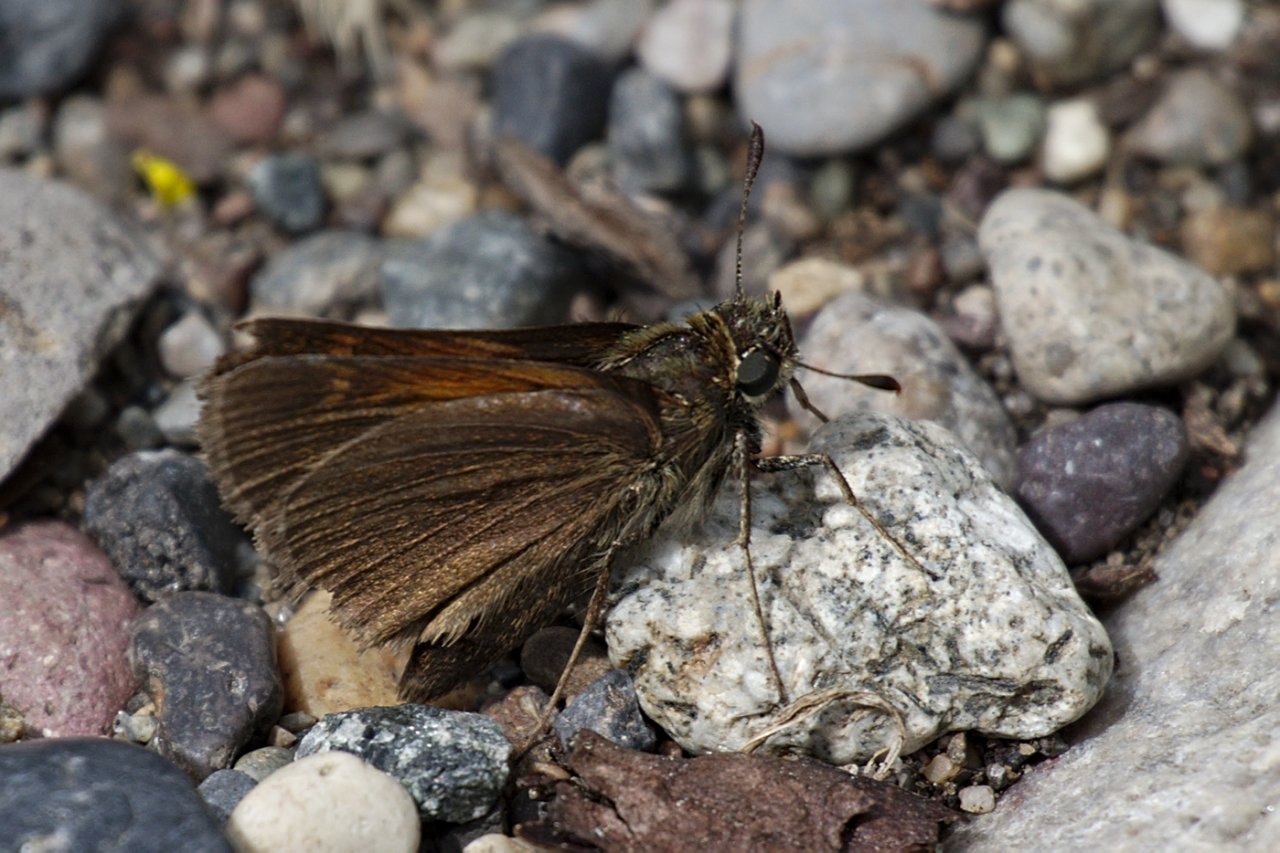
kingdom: Animalia
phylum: Arthropoda
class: Insecta
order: Lepidoptera
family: Hesperiidae
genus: Polites
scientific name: Polites themistocles
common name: Tawny-edged Skipper
